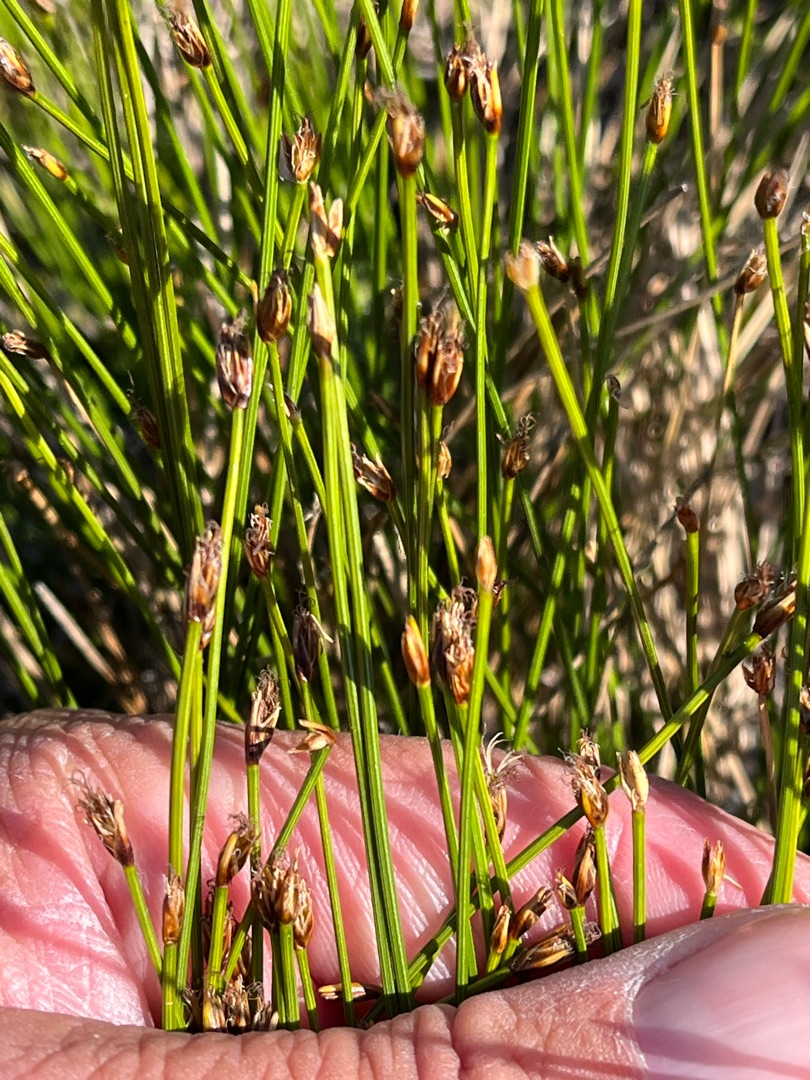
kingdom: Plantae
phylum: Tracheophyta
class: Liliopsida
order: Poales
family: Cyperaceae
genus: Trichophorum
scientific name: Trichophorum cespitosum
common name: Tuekogleaks
